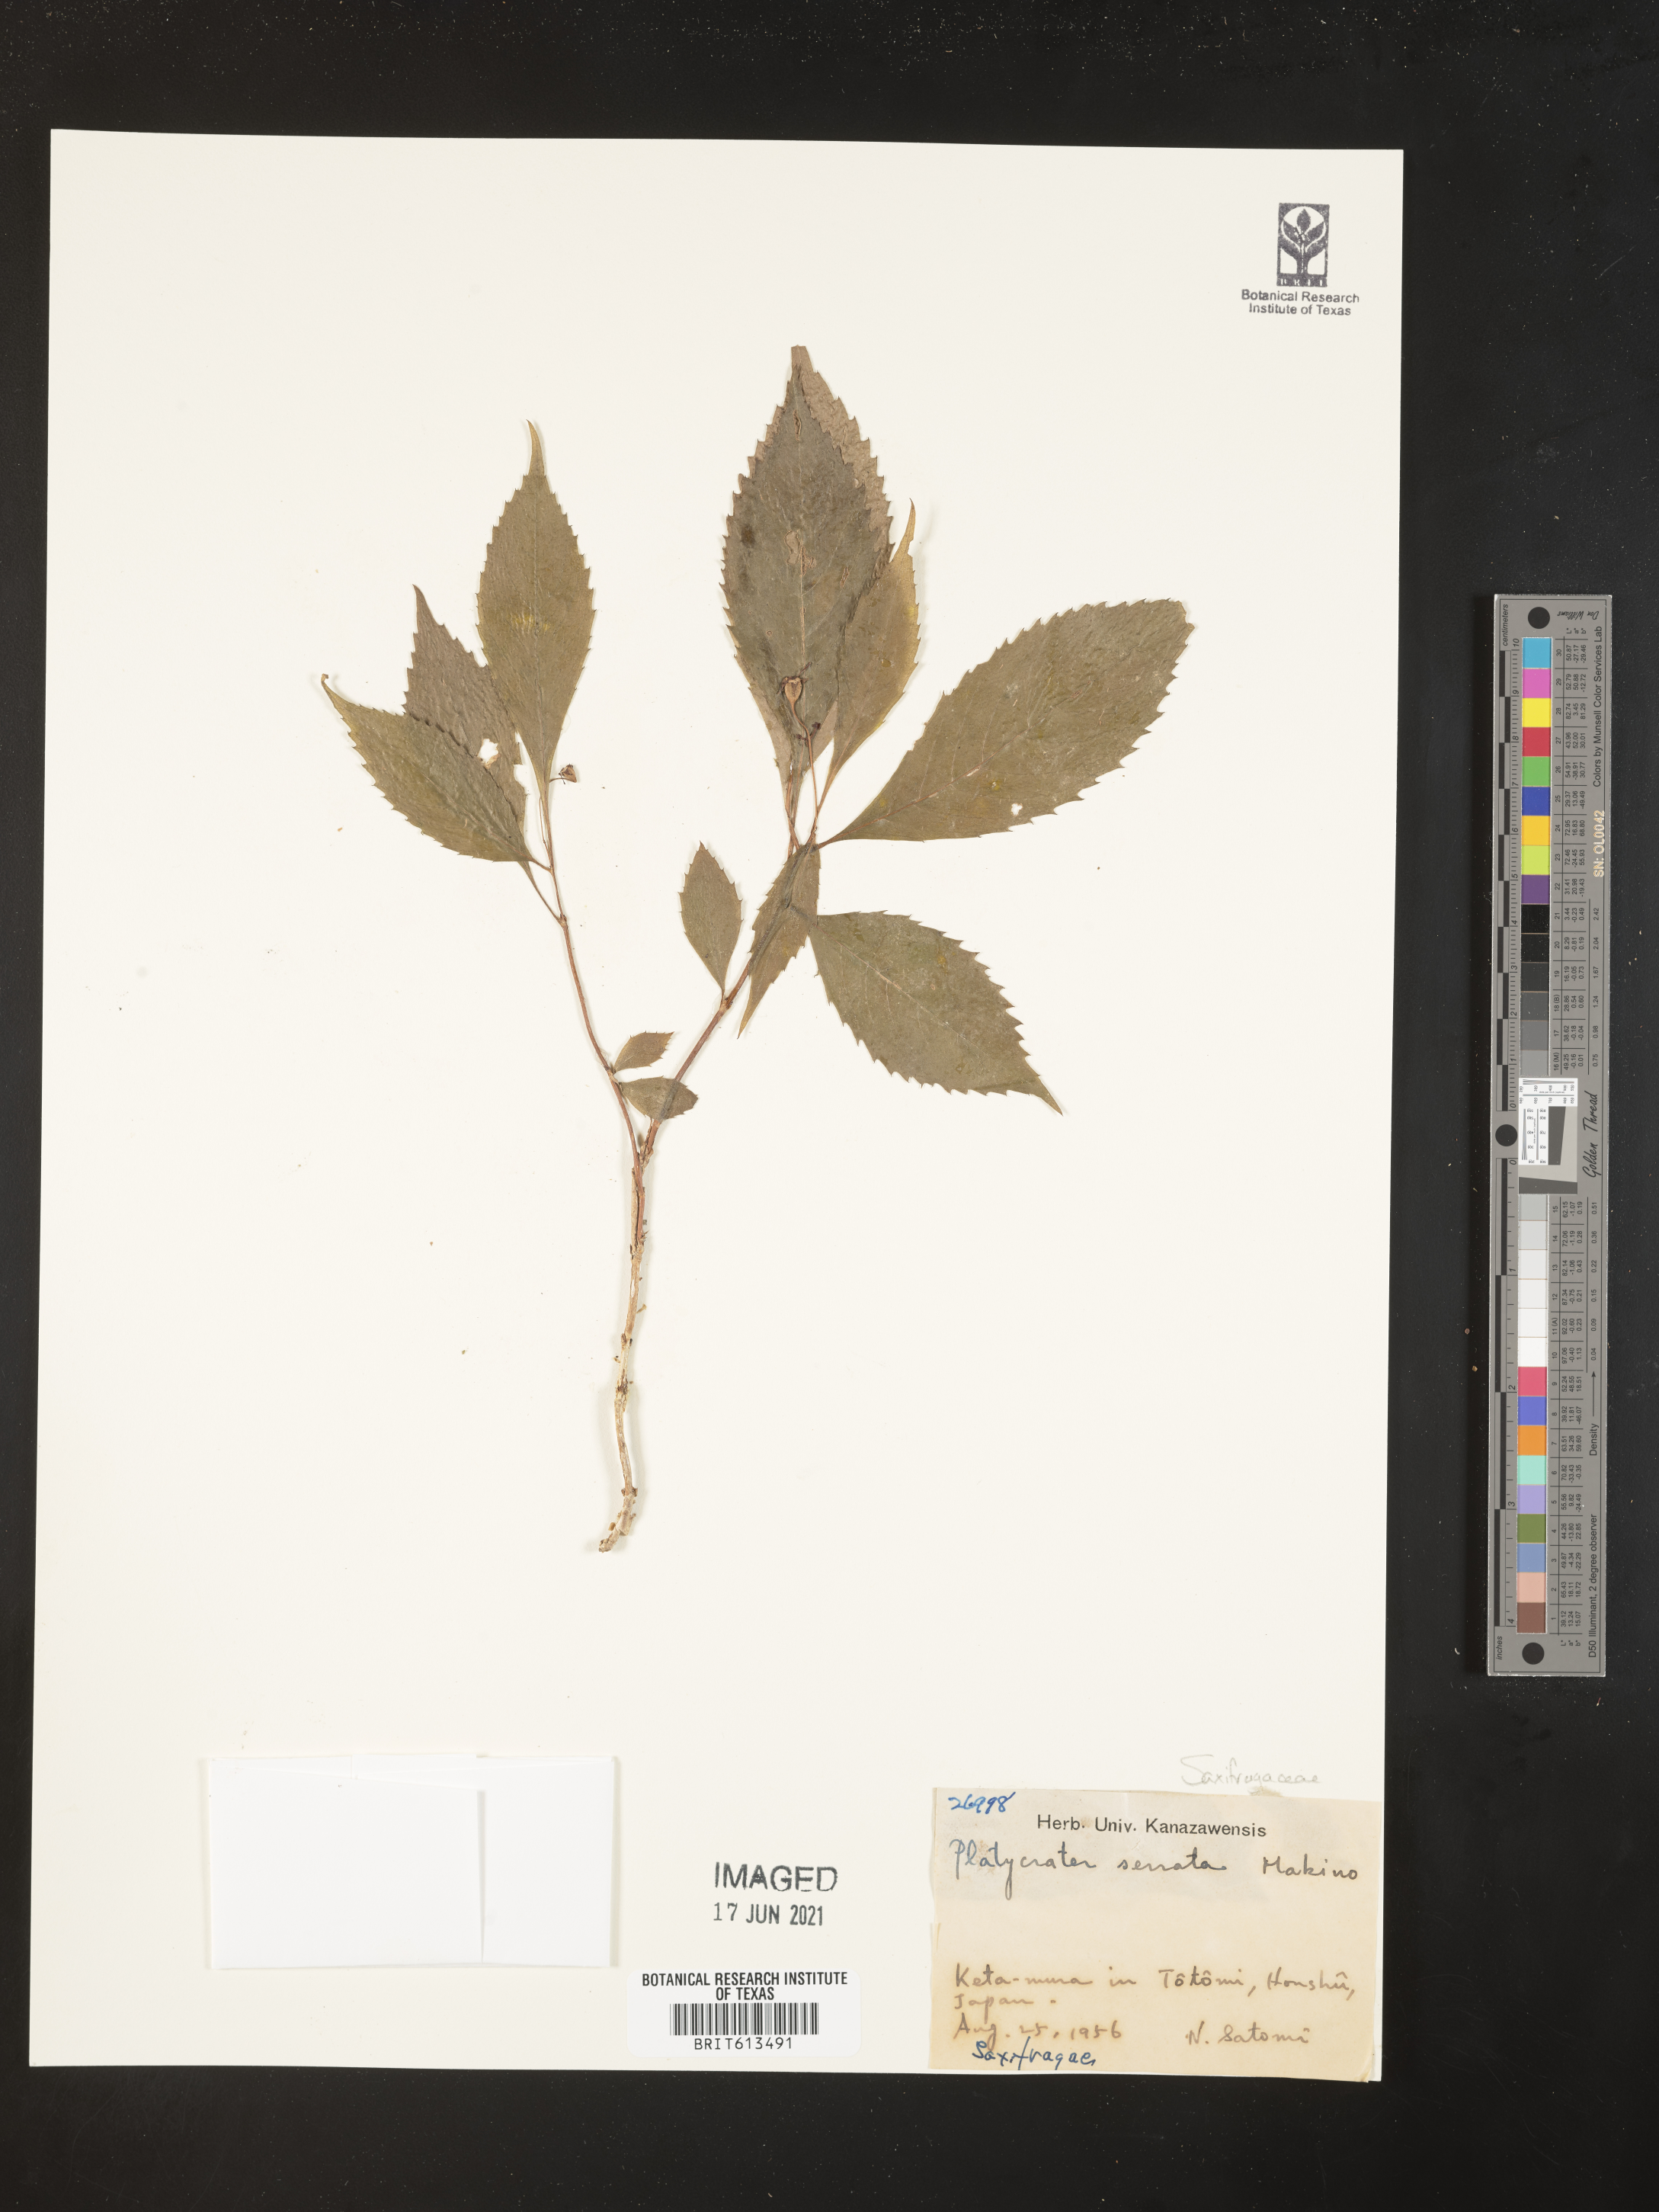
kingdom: Plantae
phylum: Tracheophyta
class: Magnoliopsida
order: Cornales
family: Hydrangeaceae
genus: Hydrangea
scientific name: Hydrangea serrata
